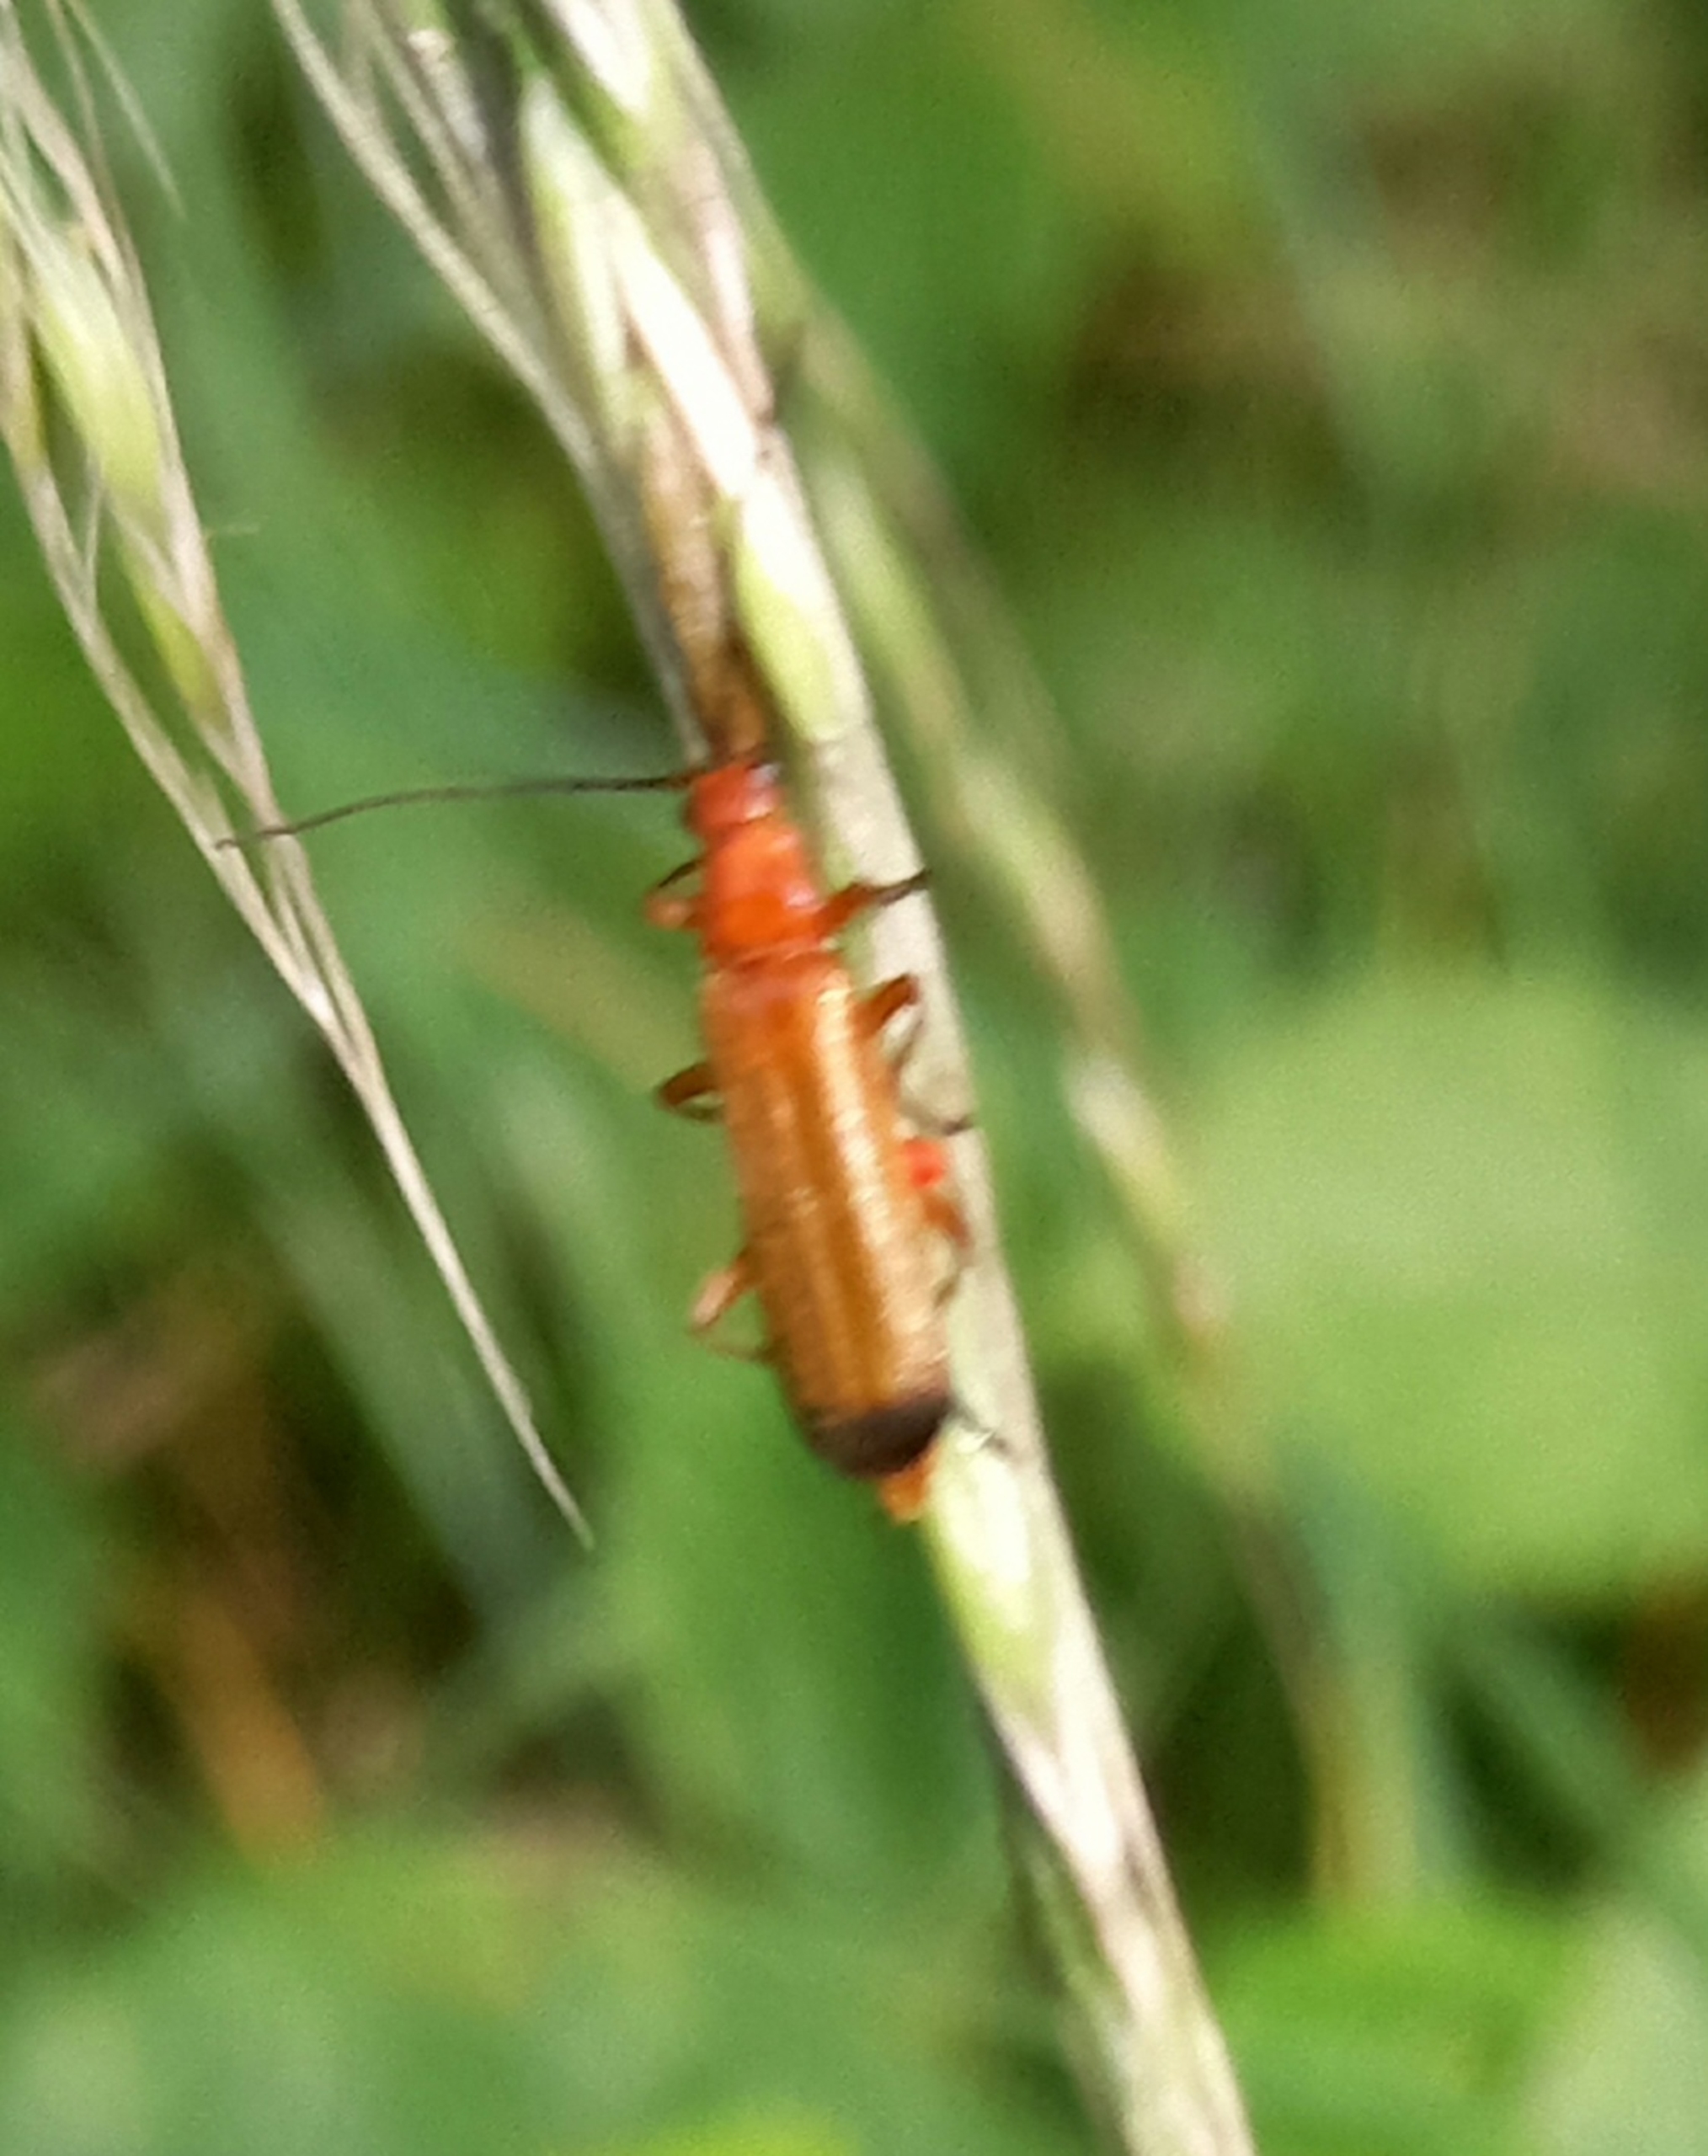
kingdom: Animalia
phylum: Arthropoda
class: Insecta
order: Coleoptera
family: Cantharidae
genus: Rhagonycha
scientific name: Rhagonycha fulva
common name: Præstebille
